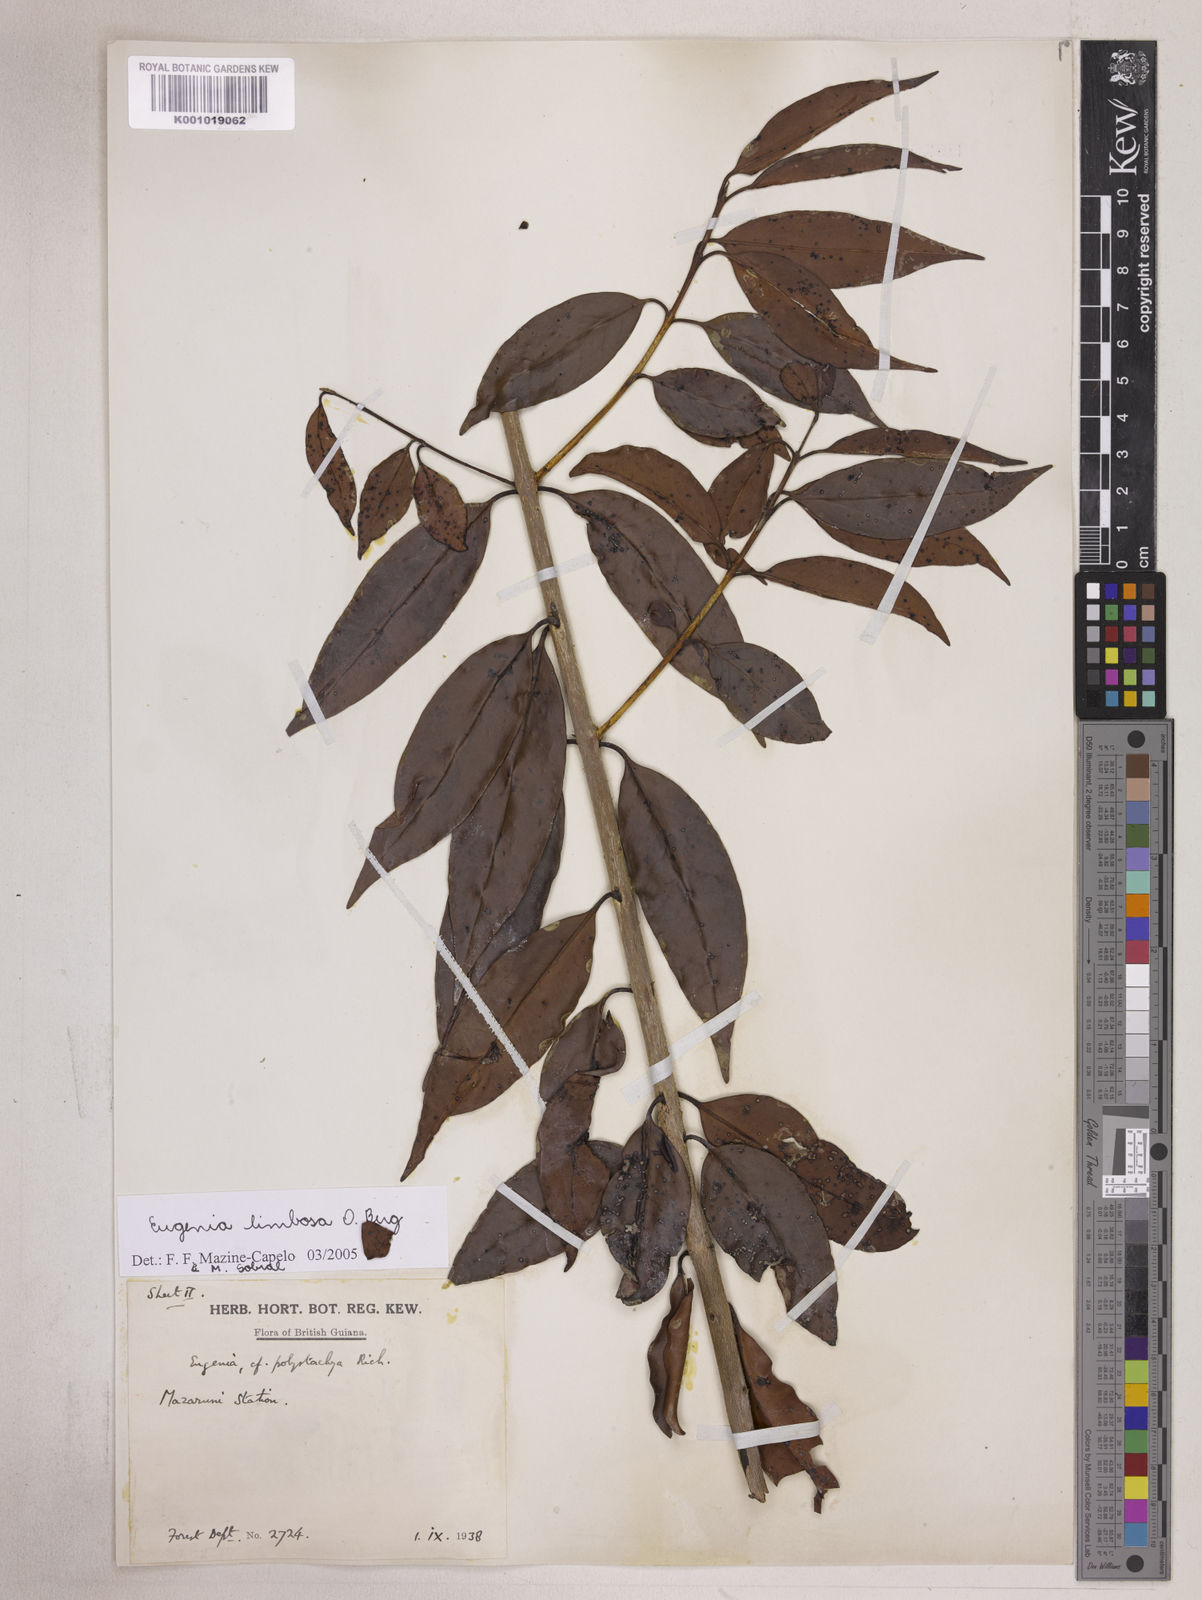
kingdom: Plantae
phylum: Tracheophyta
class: Magnoliopsida
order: Myrtales
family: Myrtaceae
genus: Eugenia
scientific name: Eugenia limbosa
